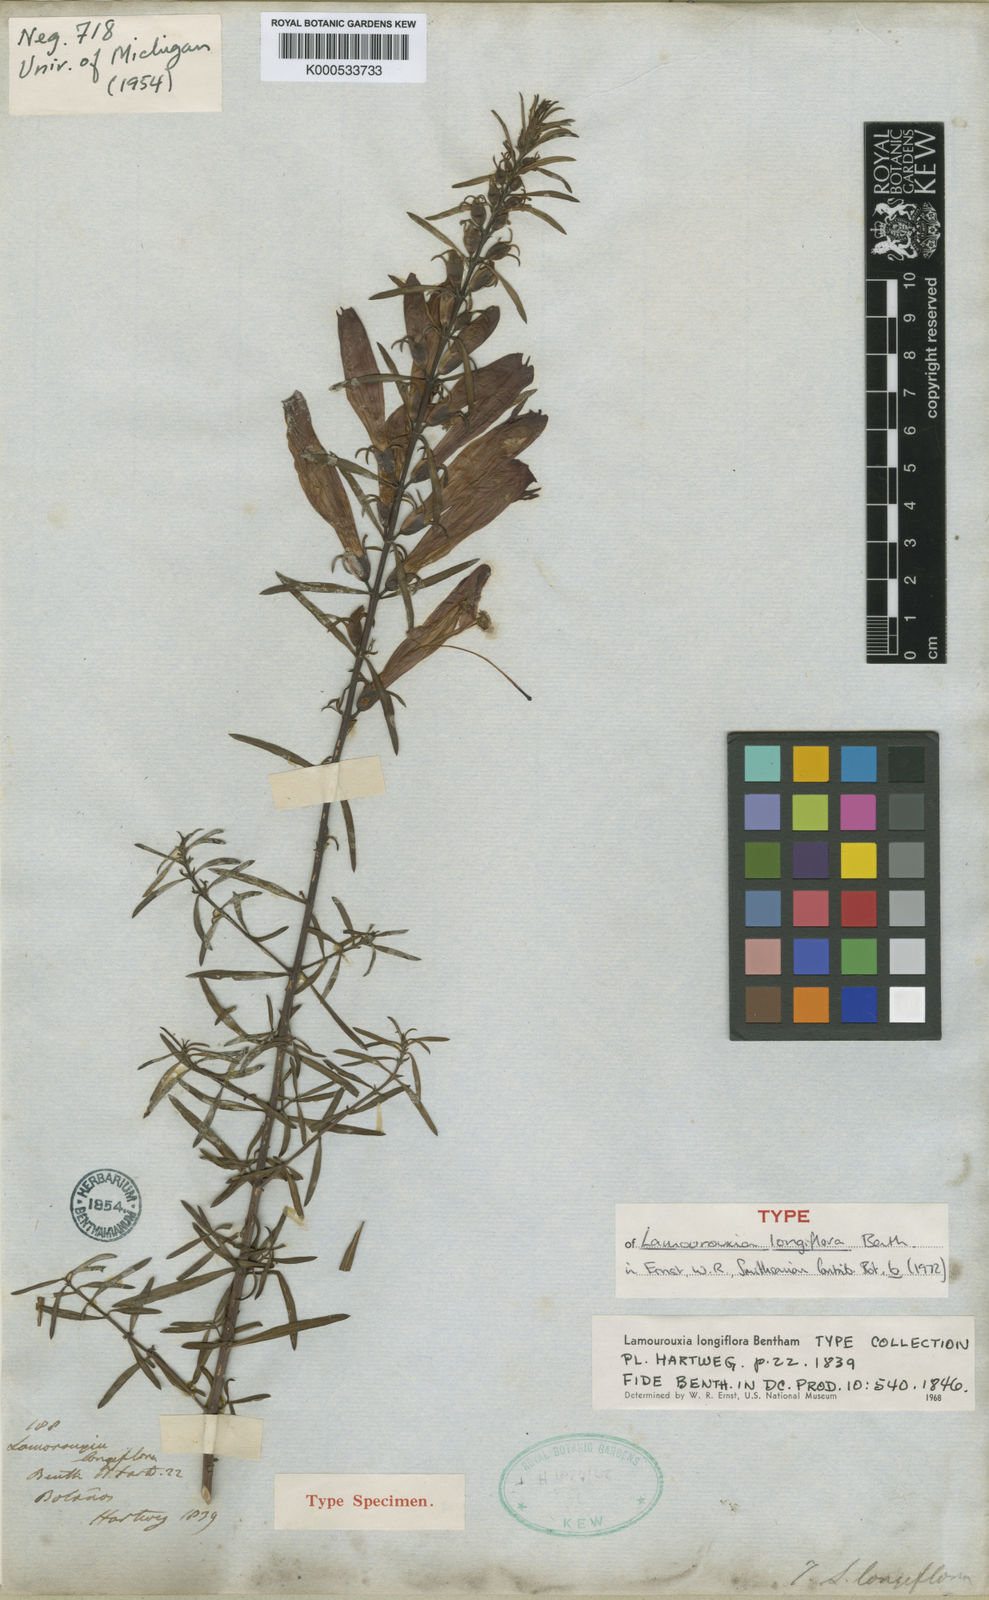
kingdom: Plantae
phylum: Tracheophyta
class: Magnoliopsida
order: Lamiales
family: Orobanchaceae
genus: Lamourouxia
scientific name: Lamourouxia longiflora
